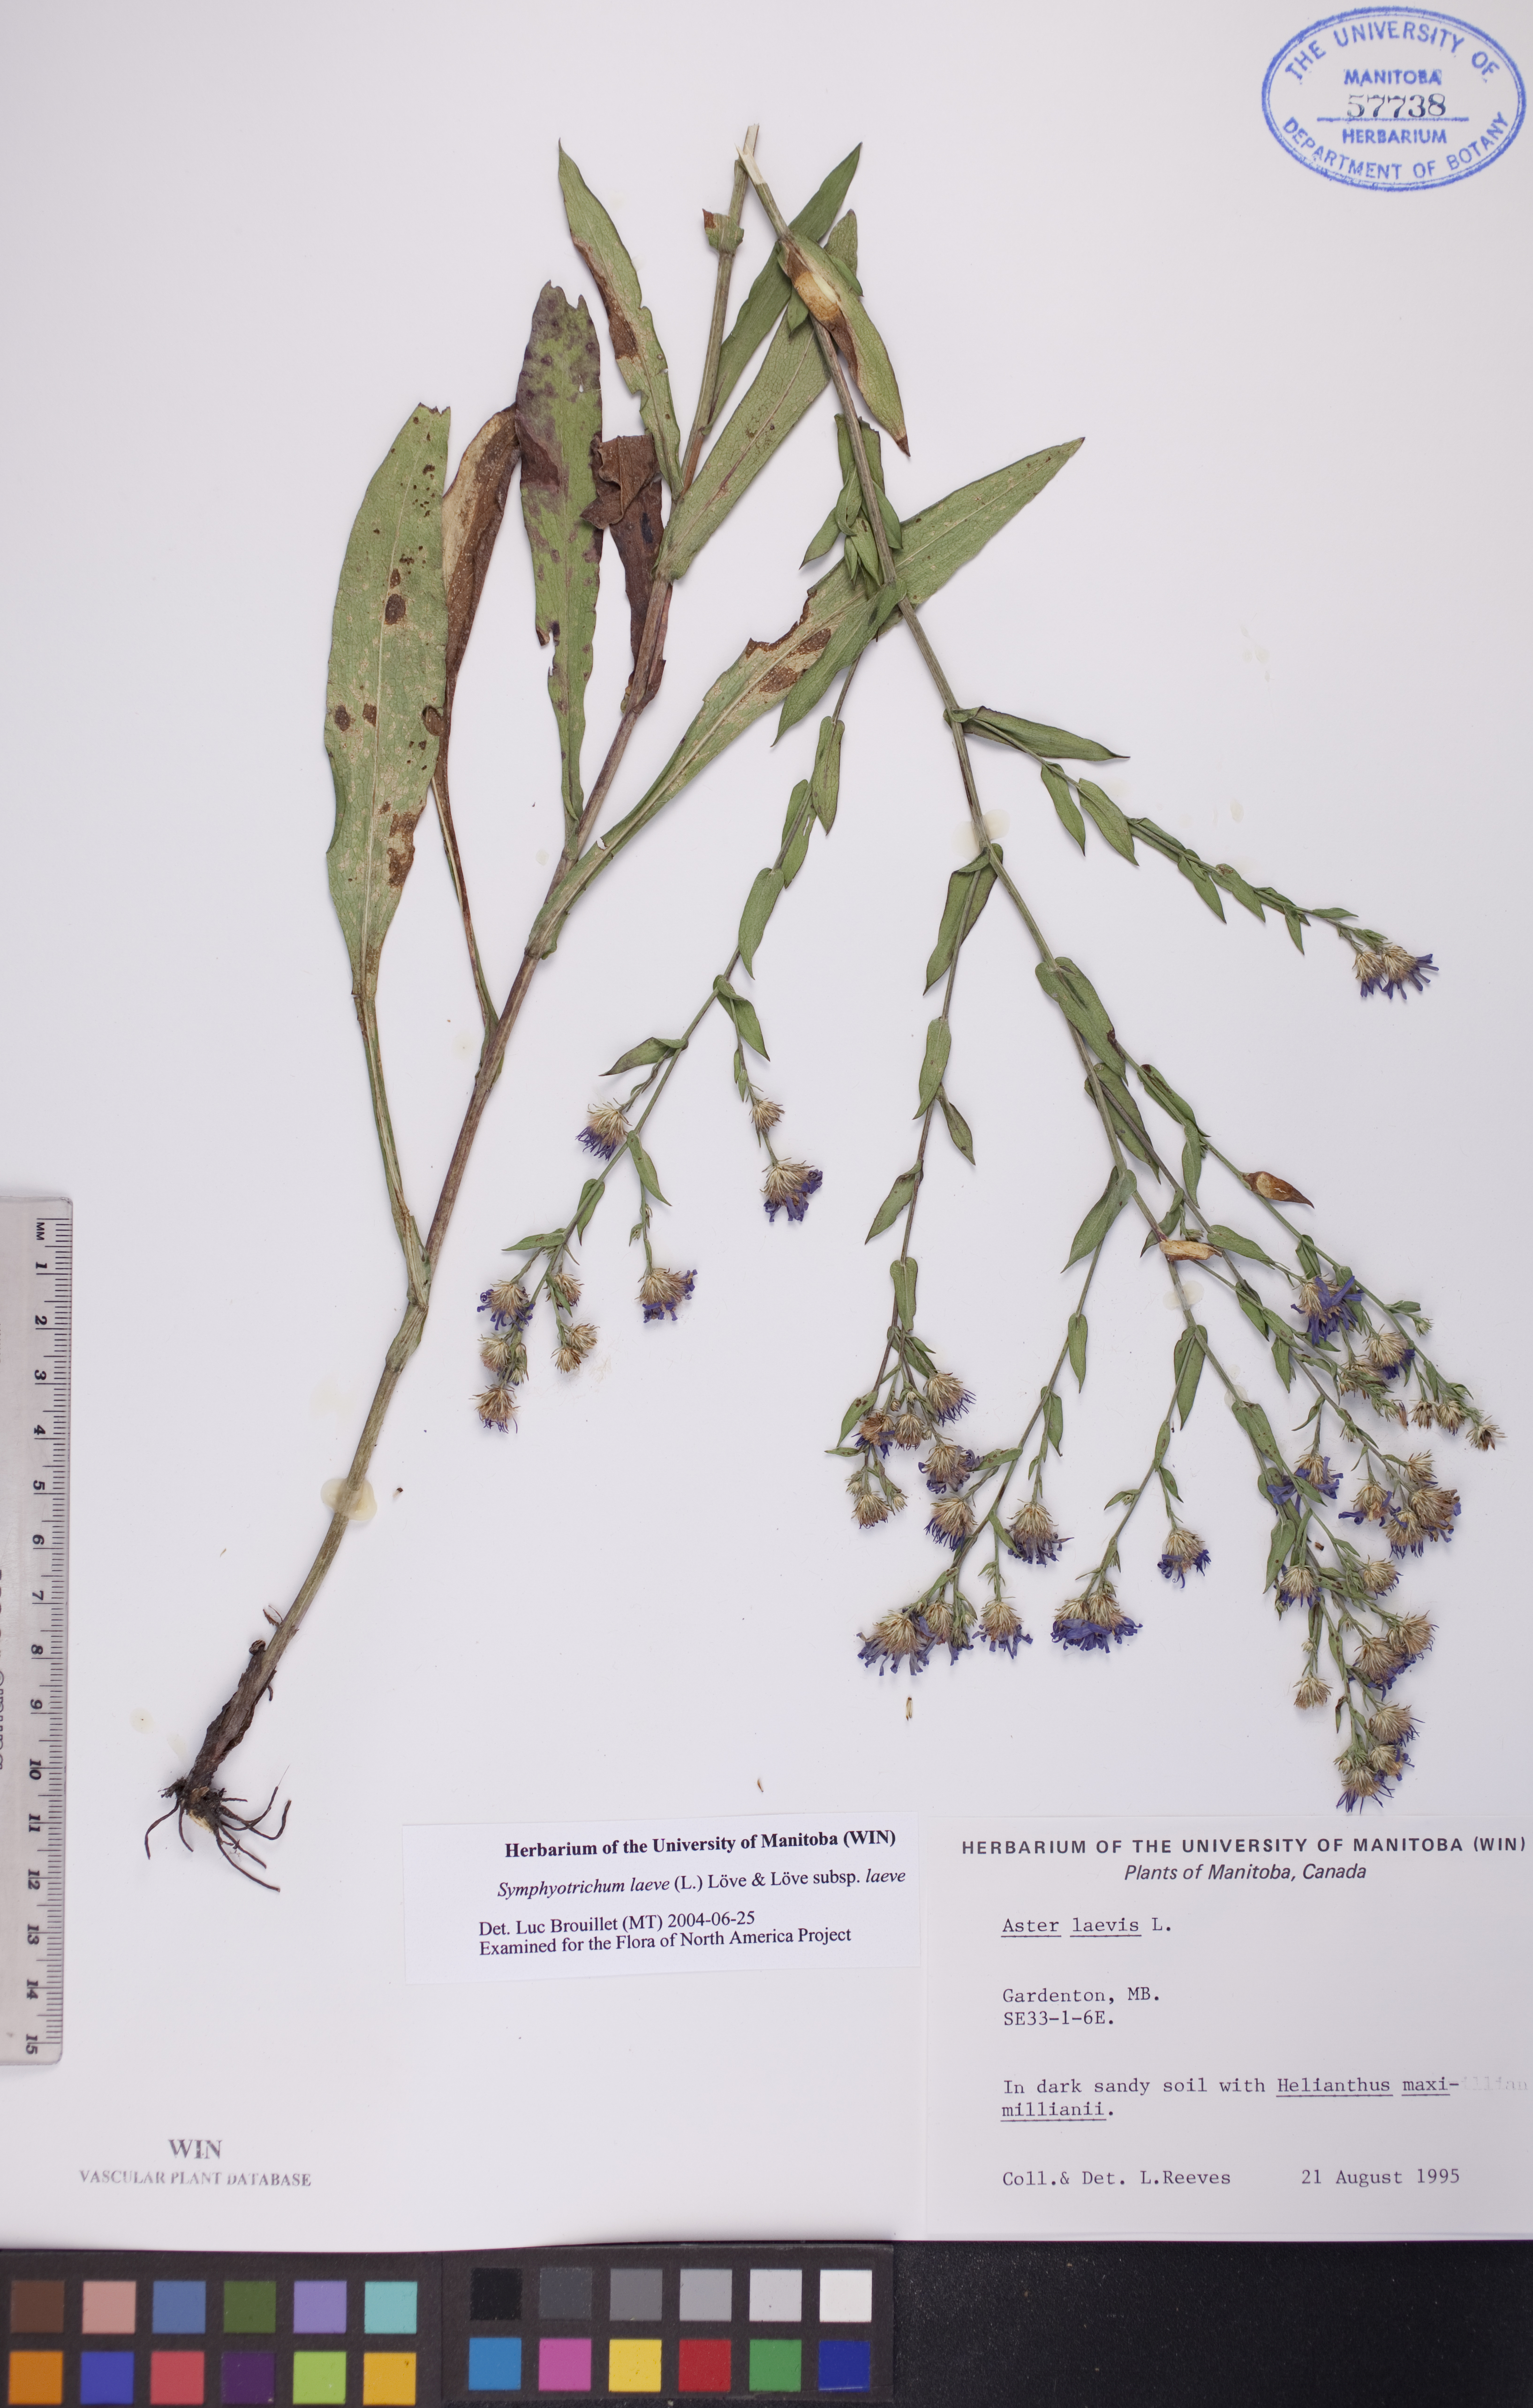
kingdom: Plantae
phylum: Tracheophyta
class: Magnoliopsida
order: Asterales
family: Asteraceae
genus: Symphyotrichum
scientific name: Symphyotrichum laeve
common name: Glaucous aster
